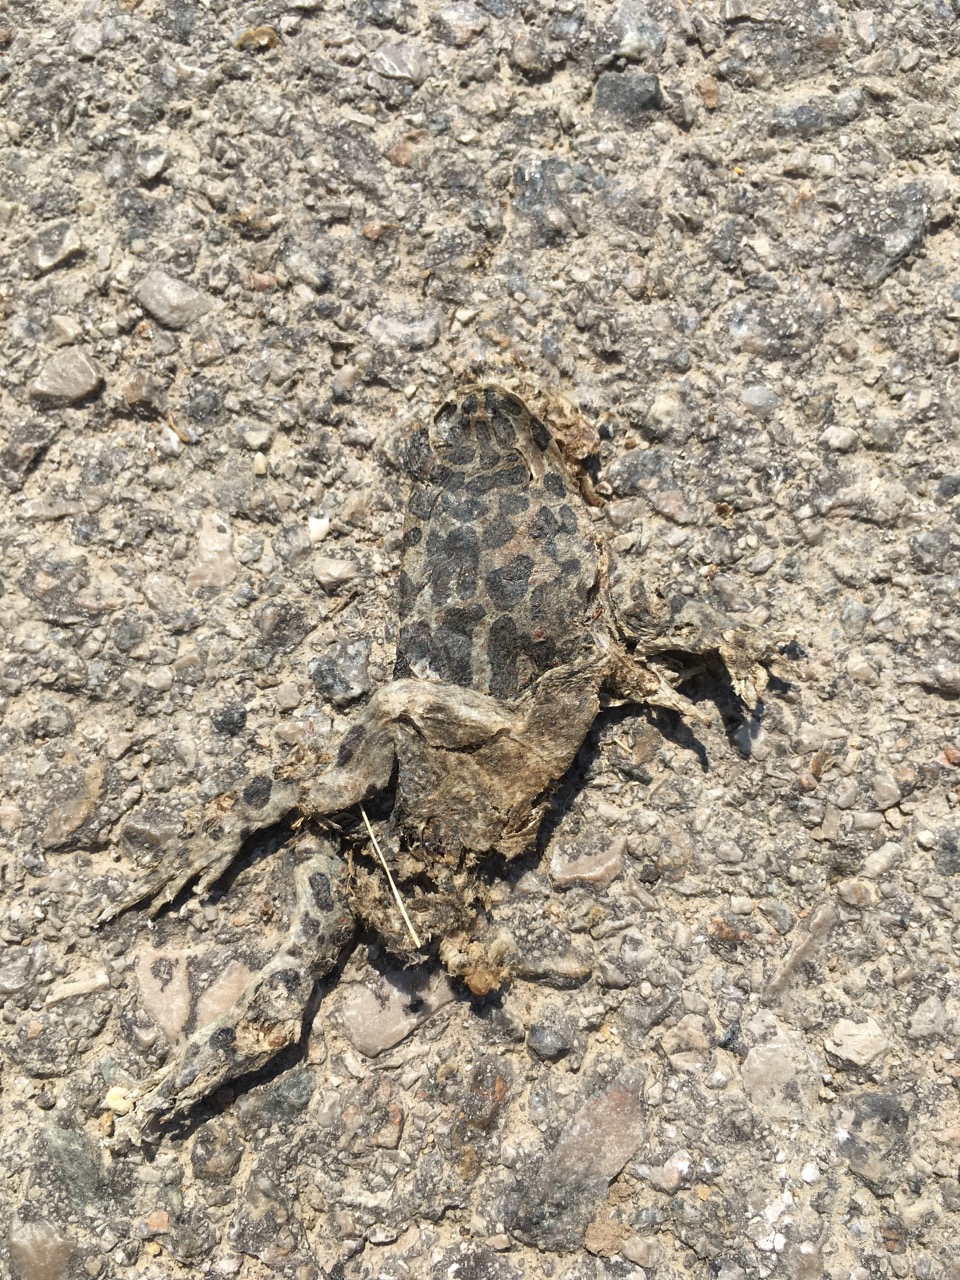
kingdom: Animalia
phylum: Chordata
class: Amphibia
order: Anura
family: Bufonidae
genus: Bufotes
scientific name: Bufotes viridis
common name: European green toad
